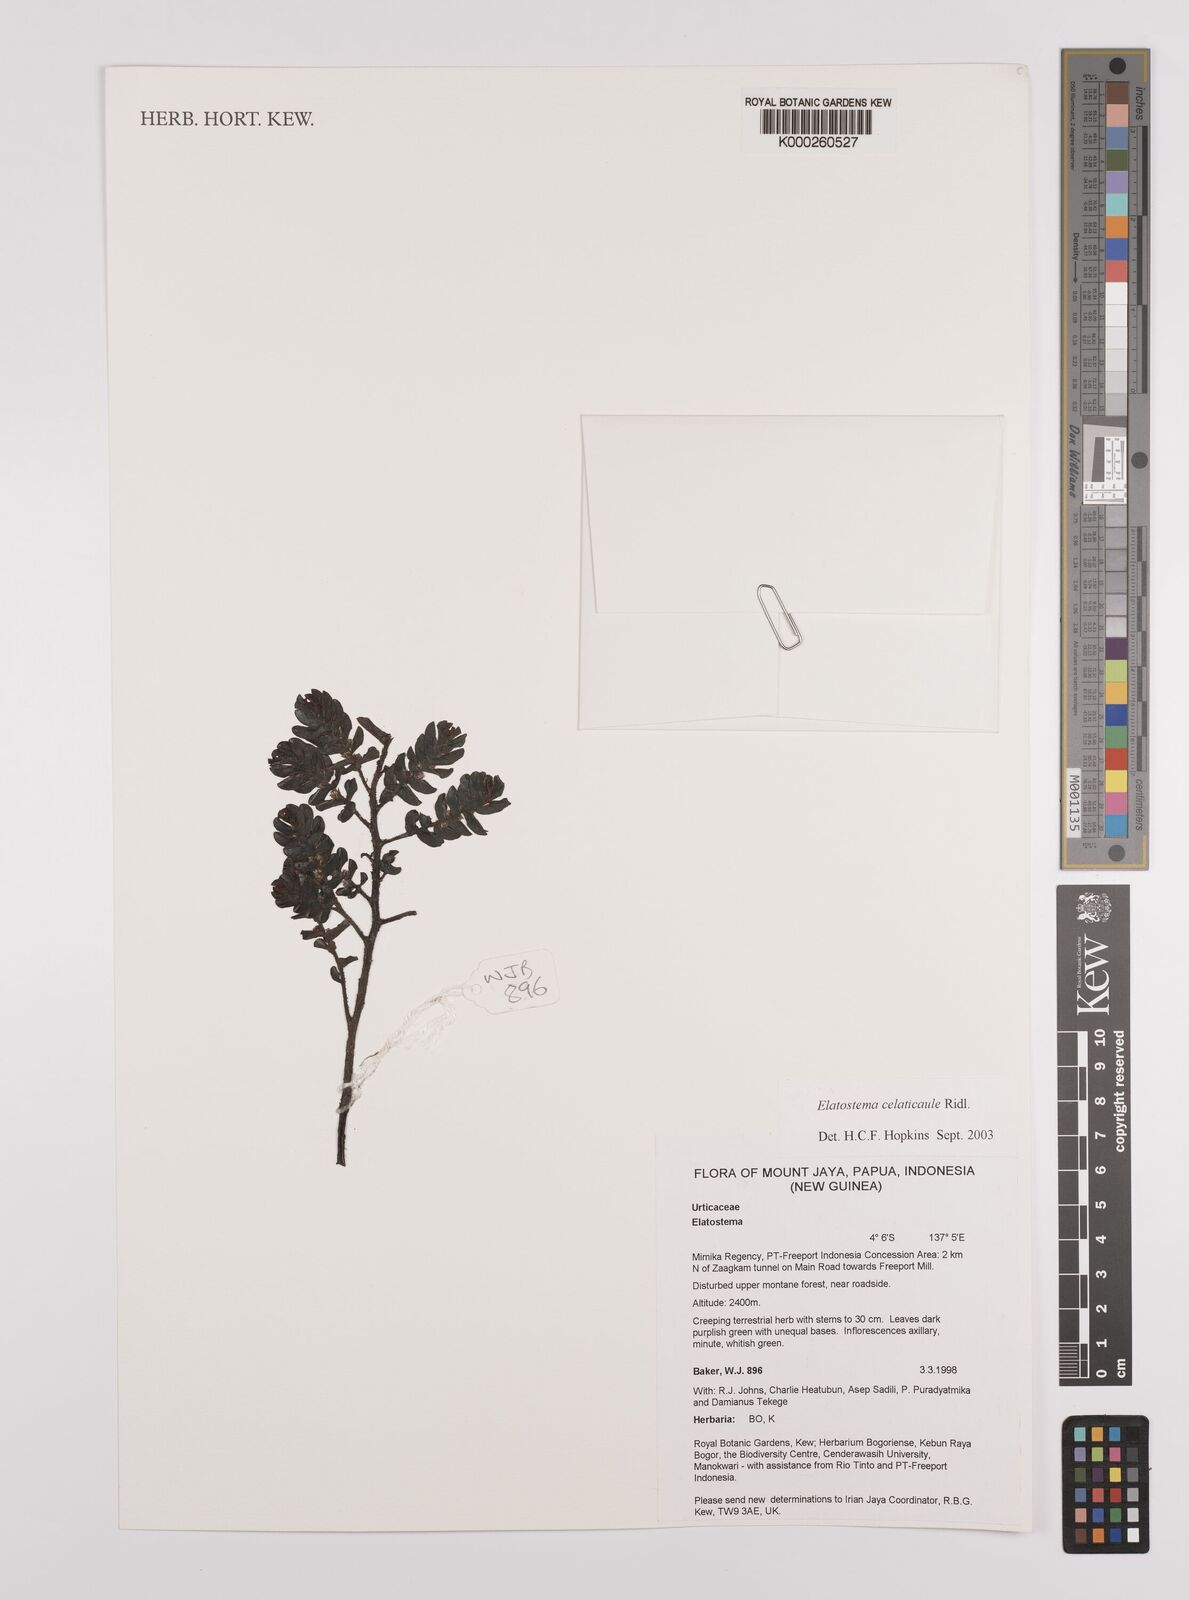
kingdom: Plantae
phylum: Tracheophyta
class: Magnoliopsida
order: Rosales
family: Urticaceae
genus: Elatostema
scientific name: Elatostema celaticaule
